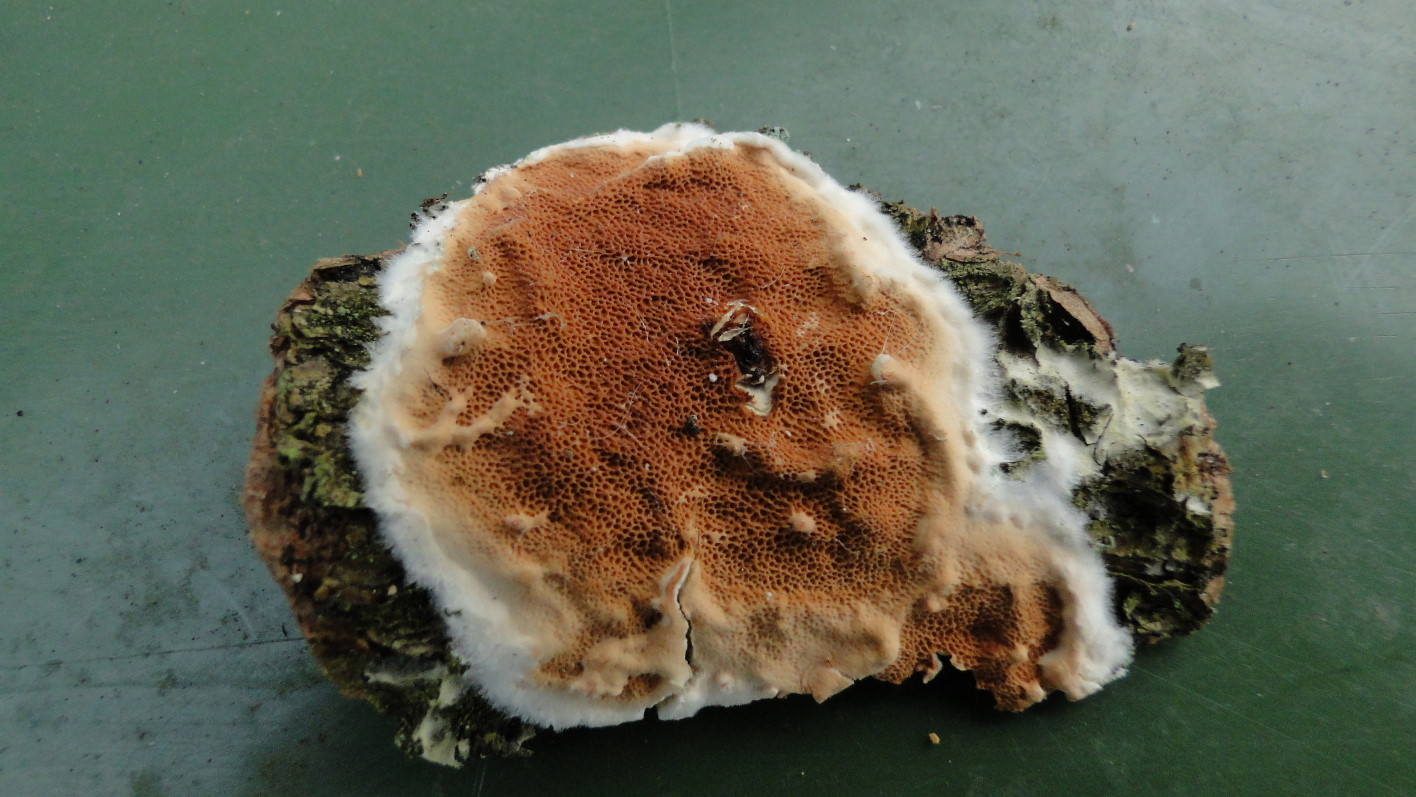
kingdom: Fungi
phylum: Basidiomycota
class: Agaricomycetes
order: Polyporales
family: Irpicaceae
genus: Meruliopsis
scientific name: Meruliopsis taxicola
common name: purpurbrun foldporesvamp
